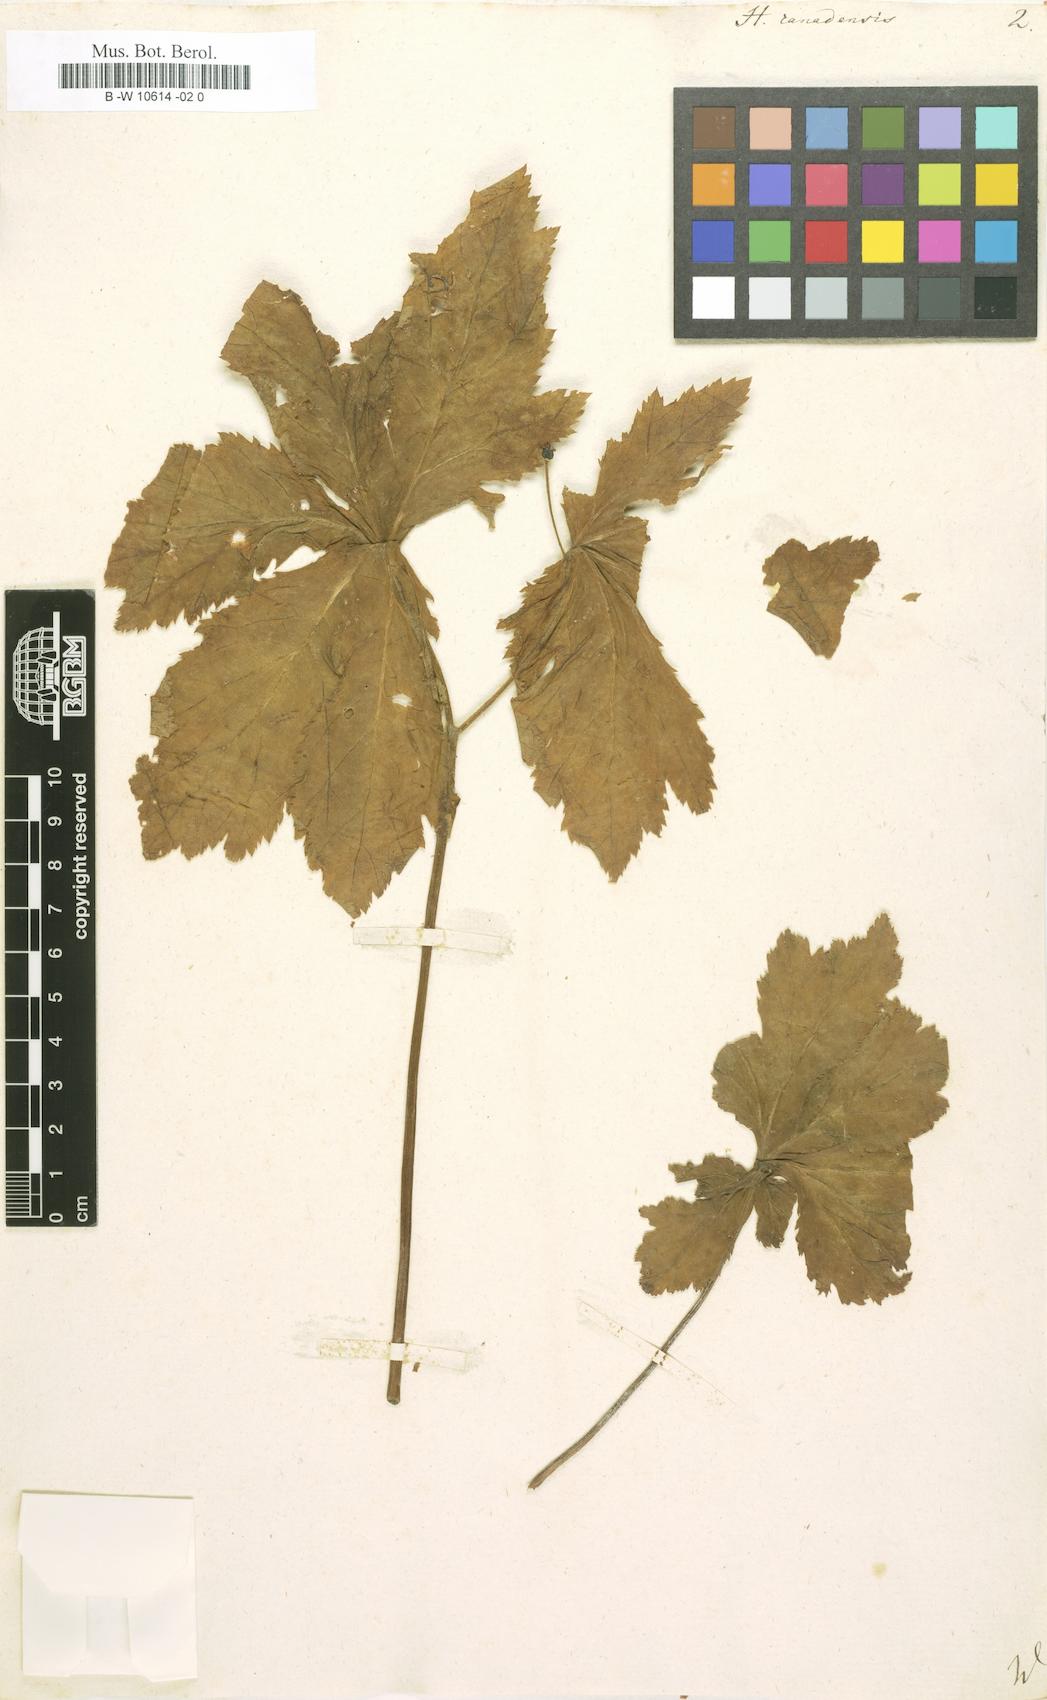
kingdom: Plantae
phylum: Tracheophyta
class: Magnoliopsida
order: Ranunculales
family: Ranunculaceae
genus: Hydrastis
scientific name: Hydrastis canadensis
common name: Goldenseal
